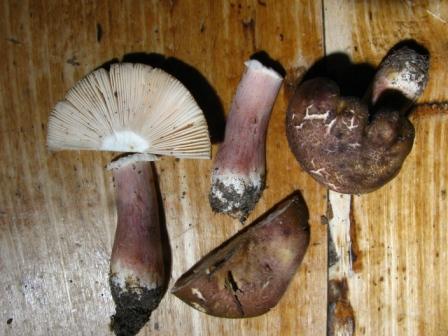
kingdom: Fungi
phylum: Basidiomycota
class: Agaricomycetes
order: Russulales
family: Russulaceae
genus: Russula
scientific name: Russula queletii
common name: Quélets skørhat
